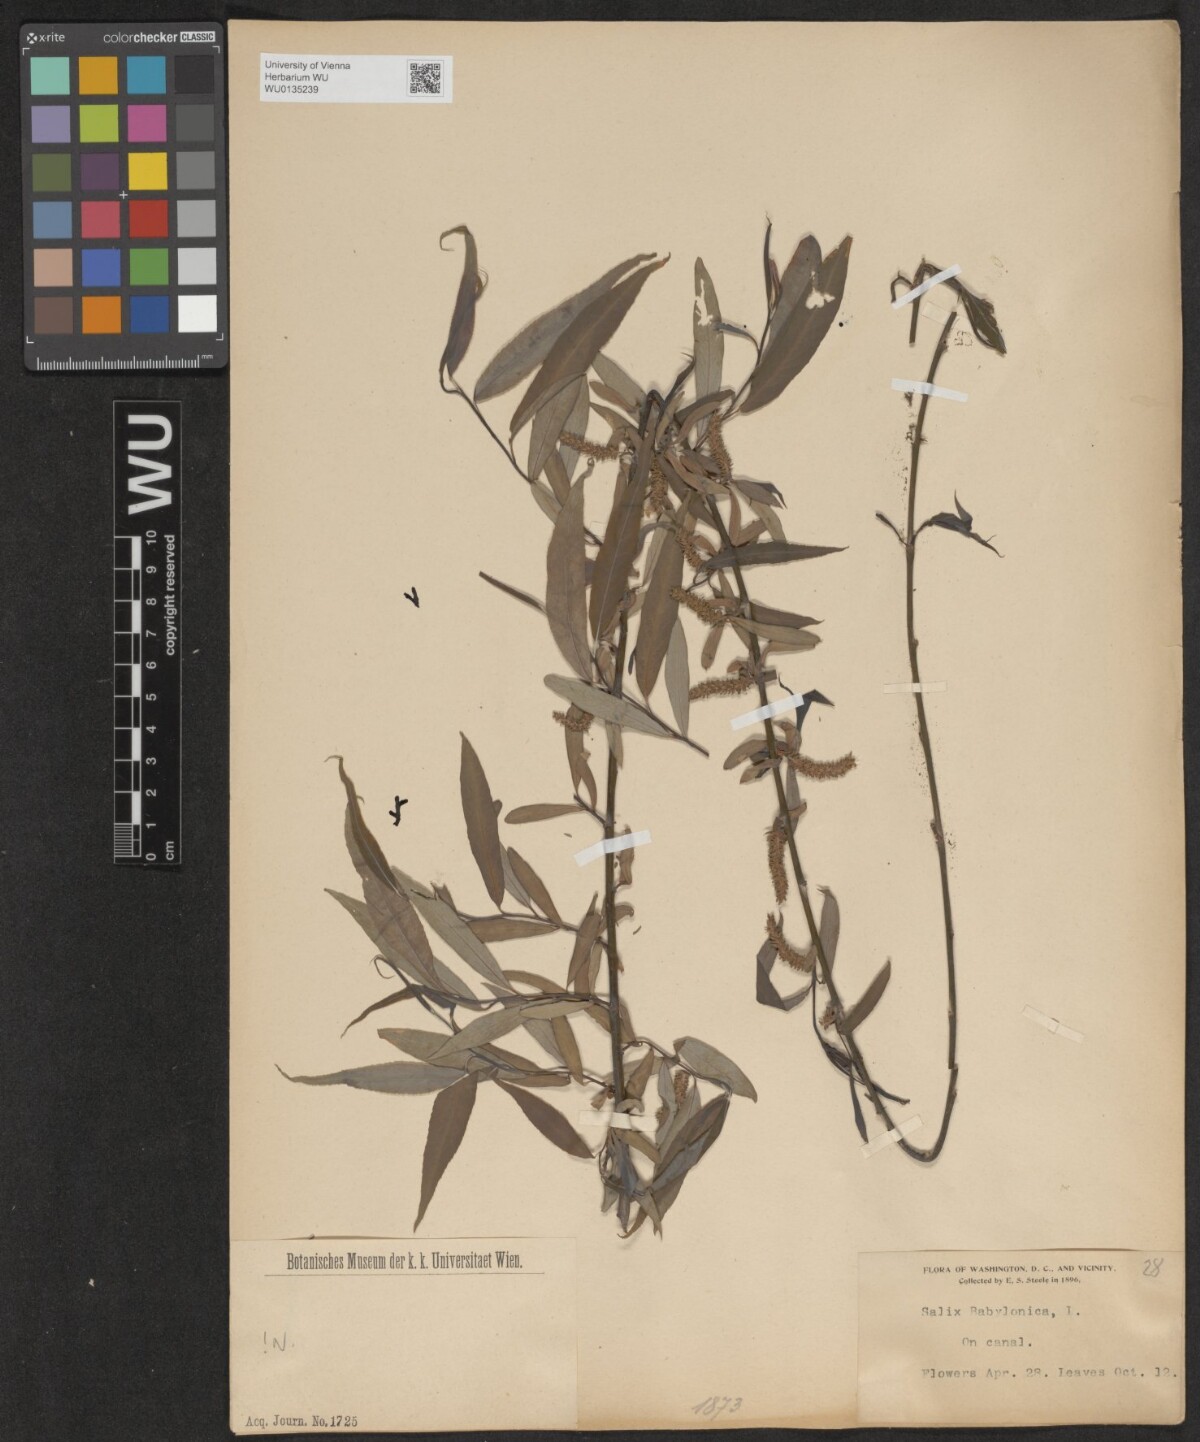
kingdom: Plantae
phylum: Tracheophyta
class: Magnoliopsida
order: Malpighiales
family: Salicaceae
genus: Salix
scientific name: Salix babylonica
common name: Weeping willow
